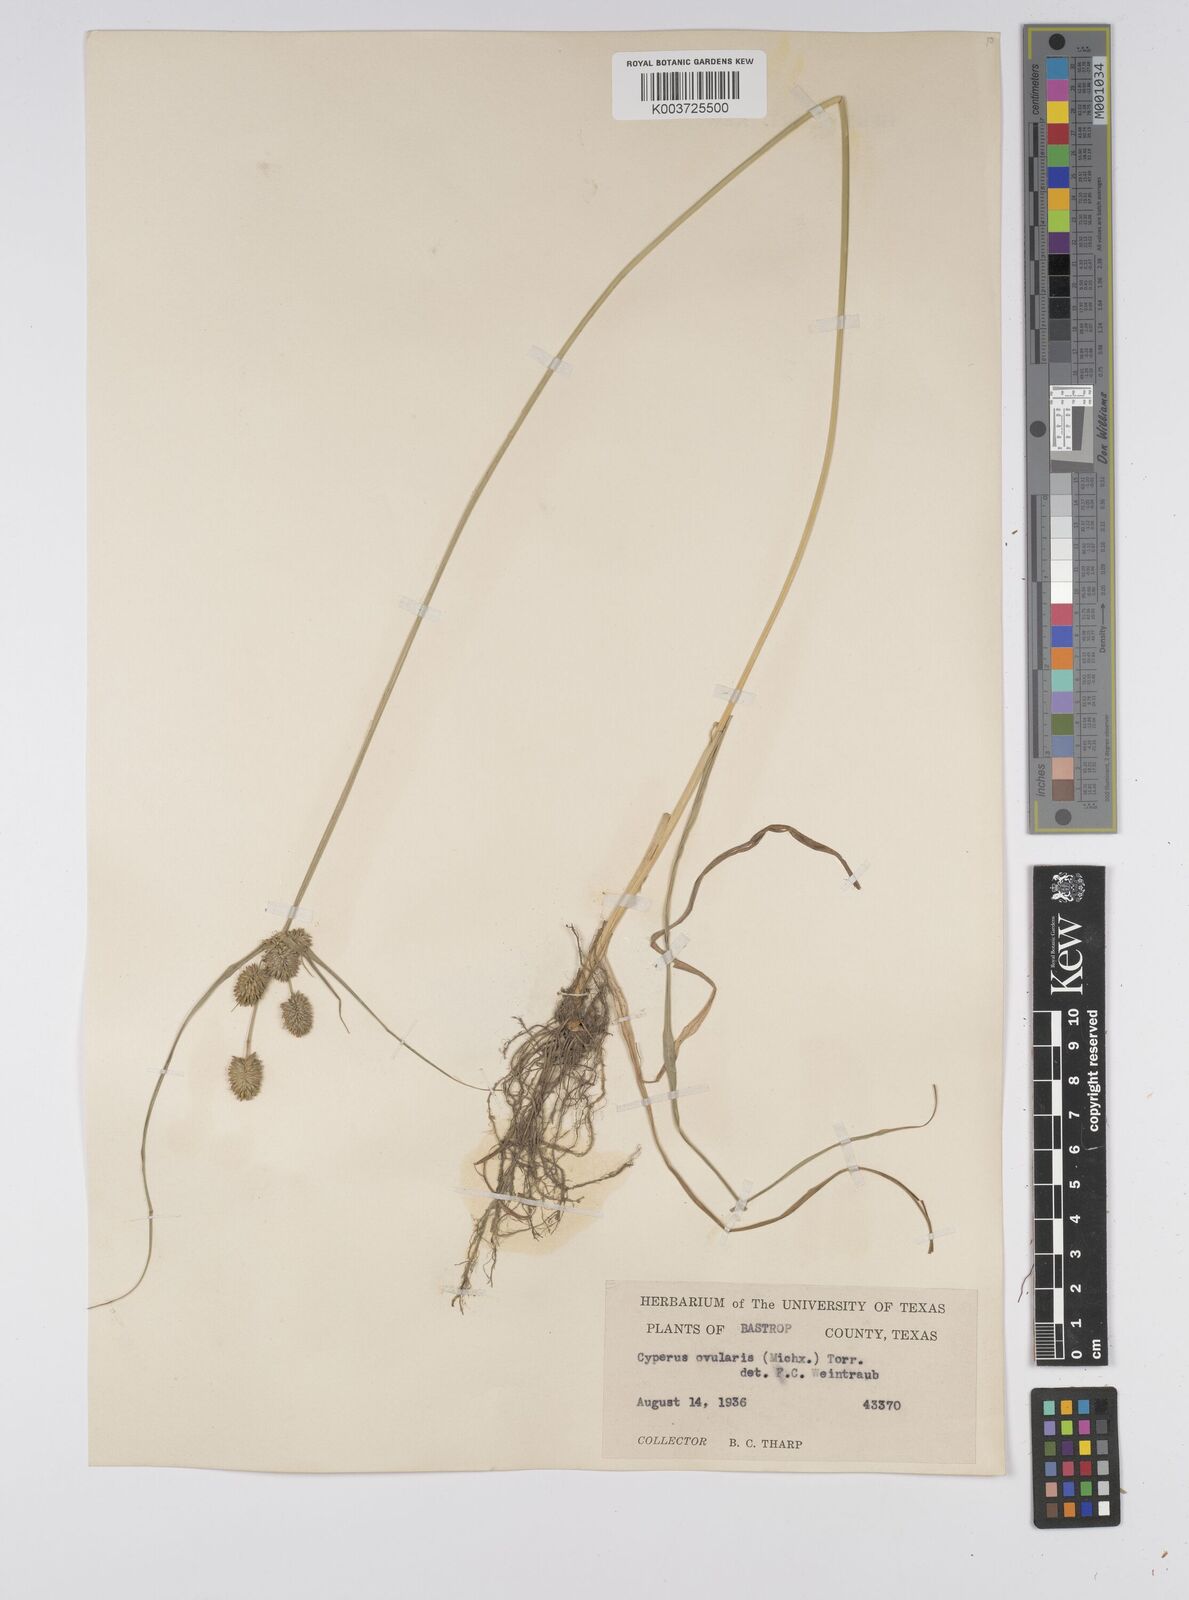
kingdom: Plantae
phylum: Tracheophyta
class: Liliopsida
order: Poales
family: Cyperaceae
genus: Cyperus
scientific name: Cyperus echinatus
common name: Teasel sedge
